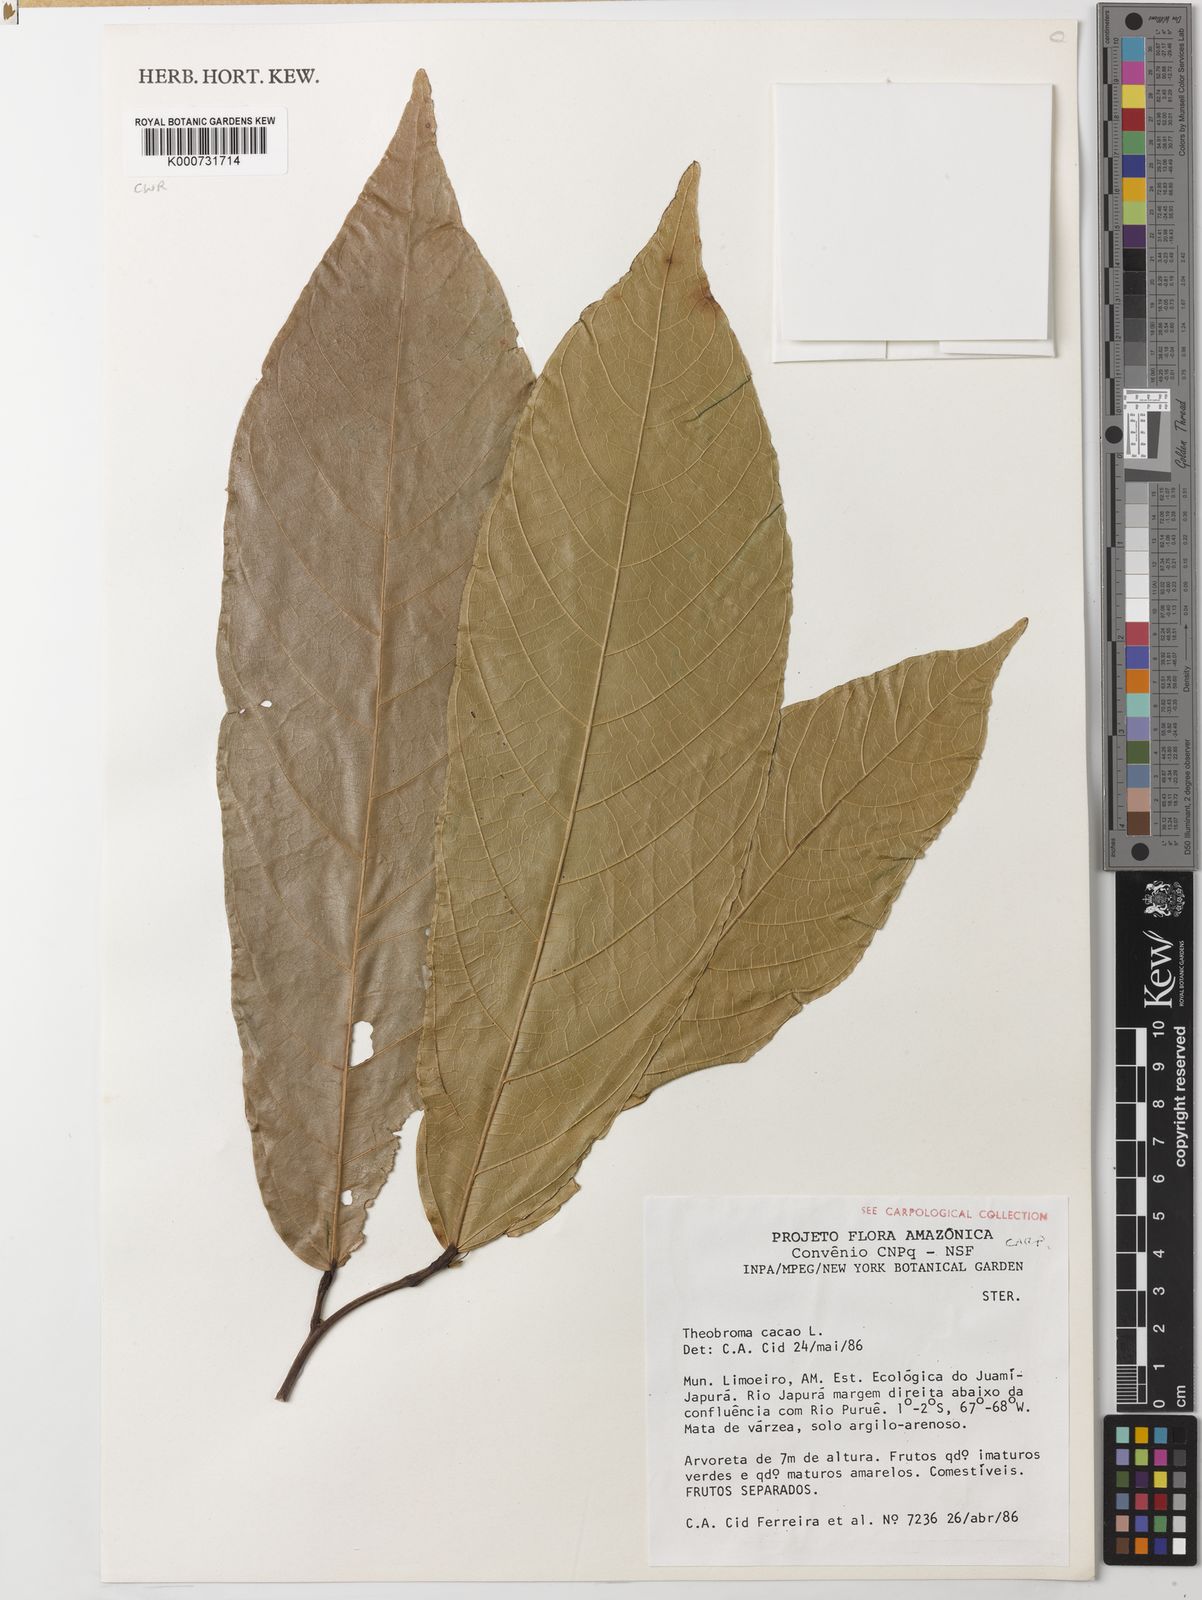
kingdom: Plantae
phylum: Tracheophyta
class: Magnoliopsida
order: Malvales
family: Malvaceae
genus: Theobroma
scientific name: Theobroma cacao
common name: Cocoa
